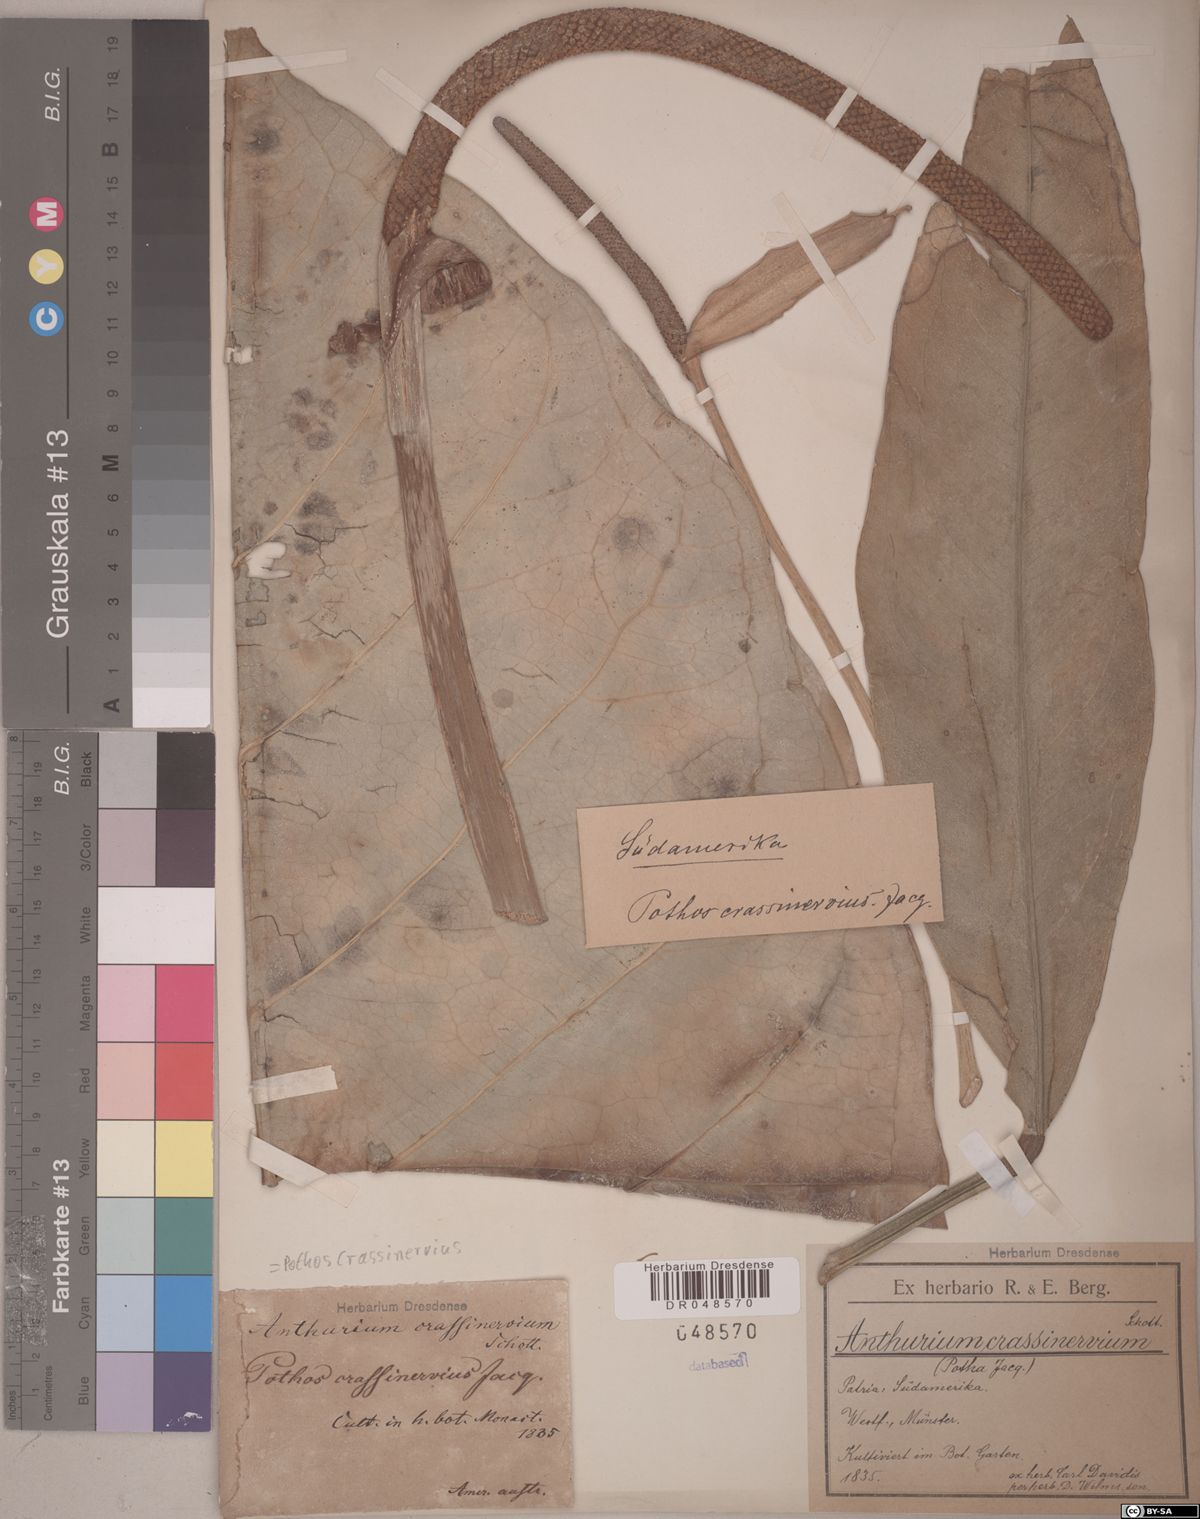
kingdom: Plantae
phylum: Tracheophyta
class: Liliopsida
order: Alismatales
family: Araceae
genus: Anthurium
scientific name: Anthurium crassinervium
